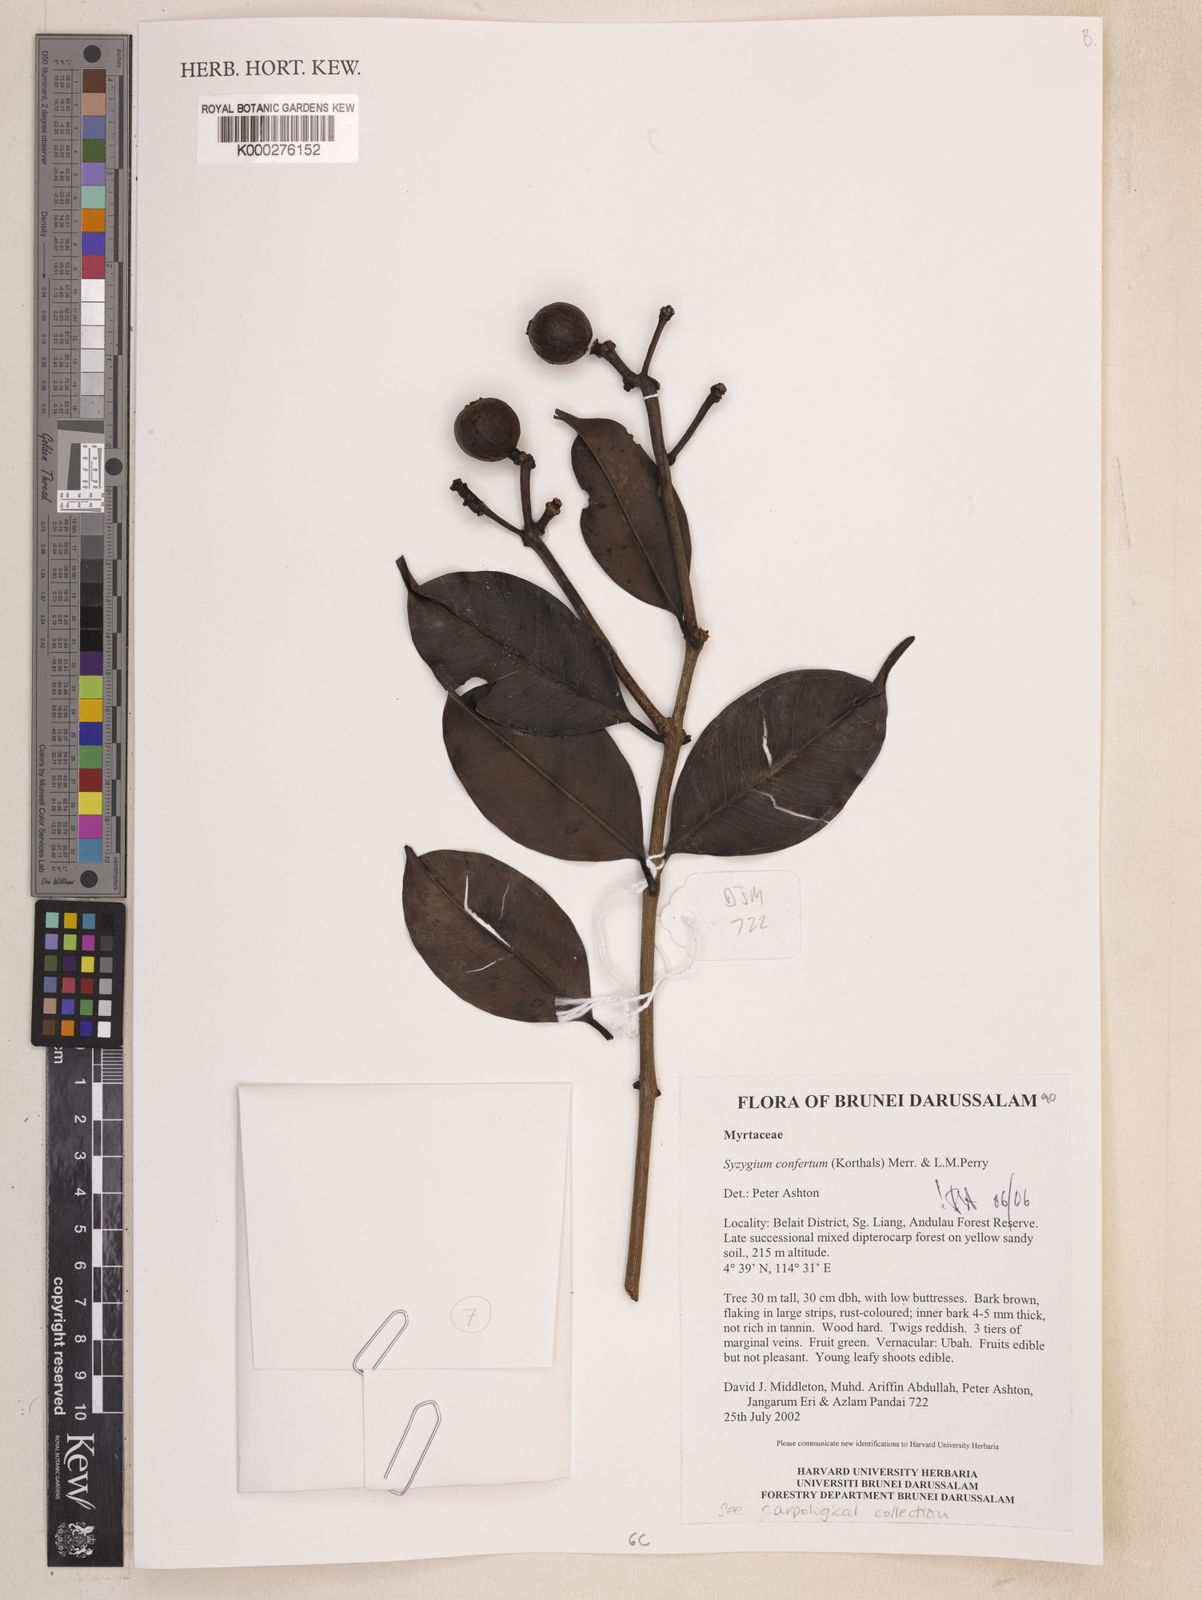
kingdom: Plantae
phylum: Tracheophyta
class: Magnoliopsida
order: Myrtales
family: Myrtaceae
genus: Syzygium
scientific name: Syzygium confertum
